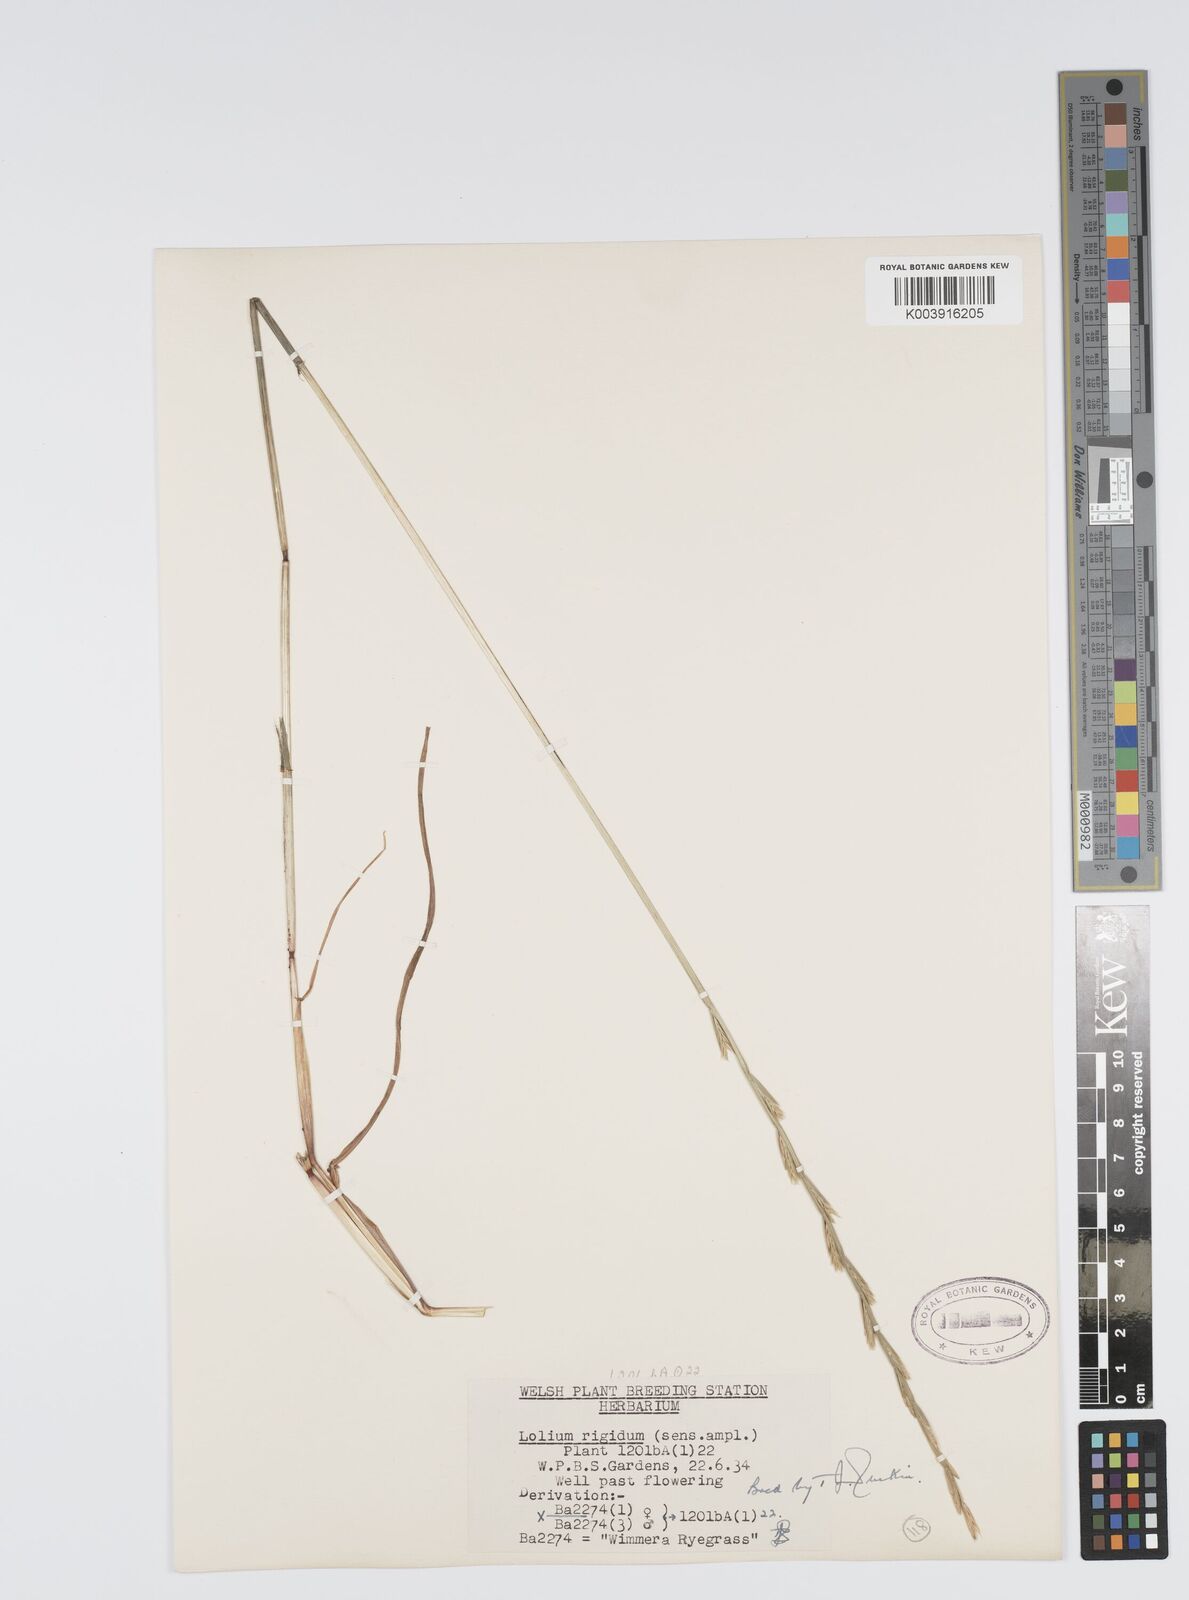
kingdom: Plantae
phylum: Tracheophyta
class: Liliopsida
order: Poales
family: Poaceae
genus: Lolium
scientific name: Lolium rigidum
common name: Wimmera ryegrass
